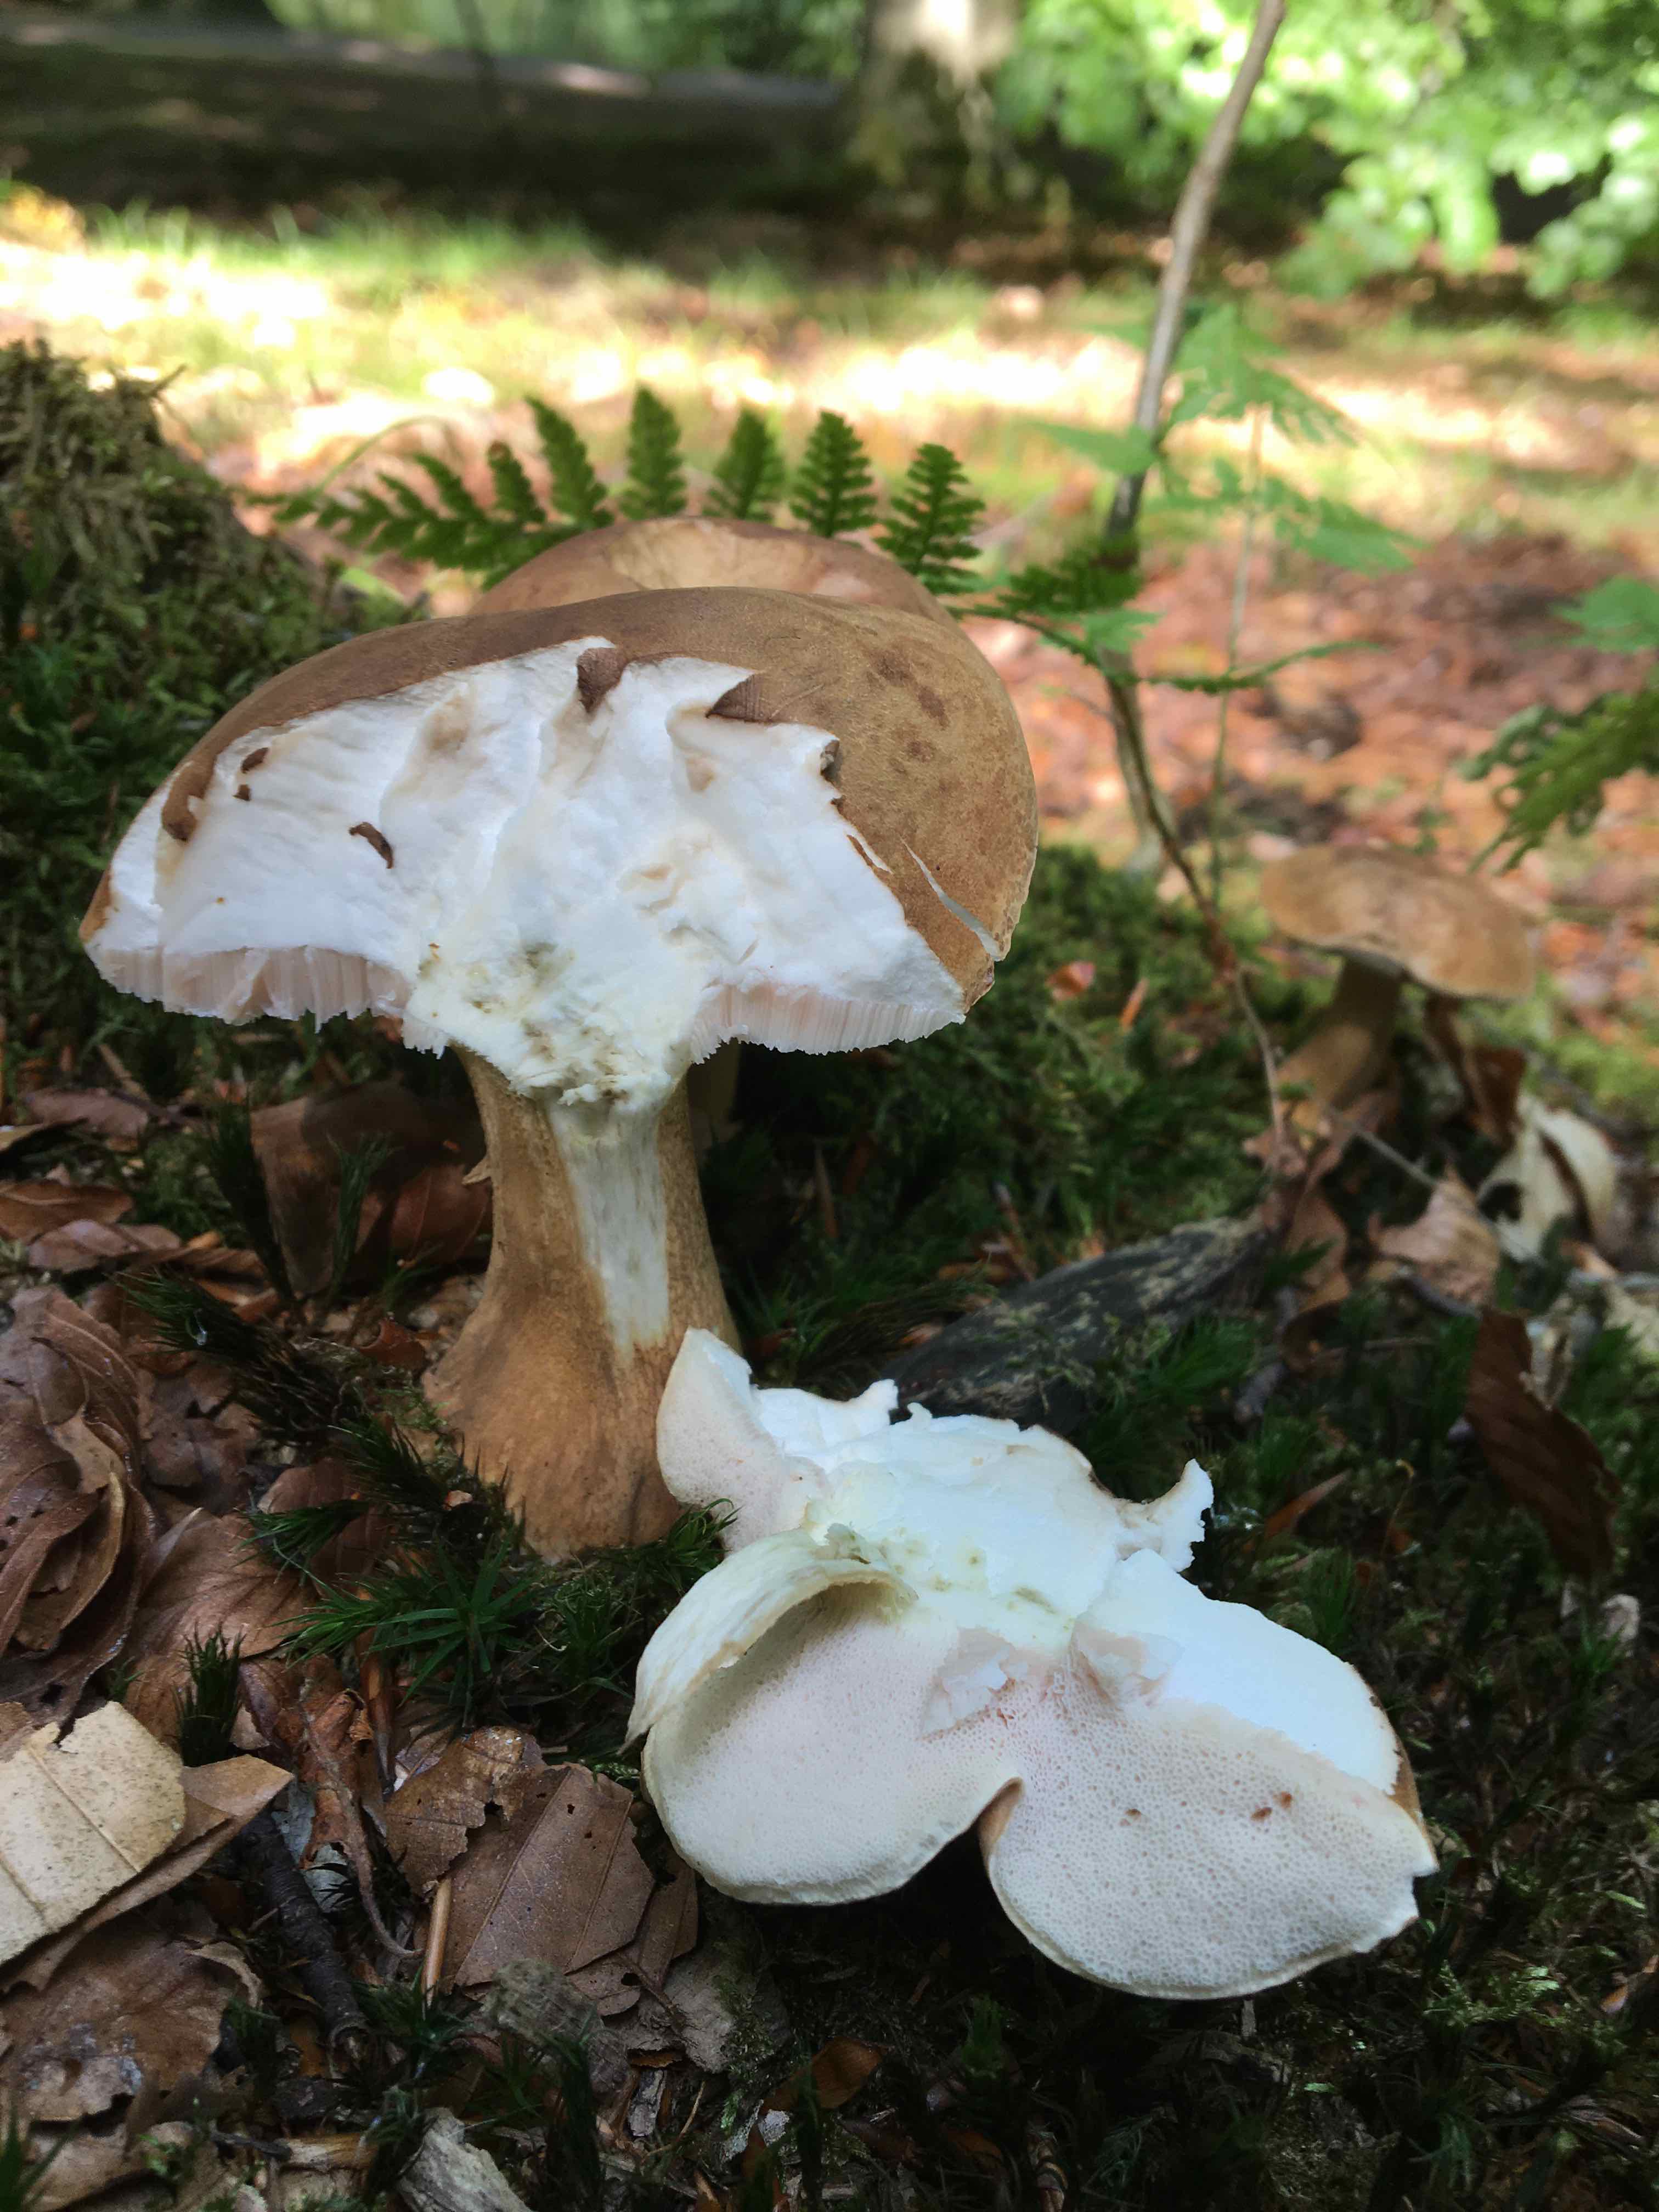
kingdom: Fungi
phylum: Basidiomycota
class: Agaricomycetes
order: Boletales
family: Boletaceae
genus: Tylopilus
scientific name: Tylopilus felleus
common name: galderørhat
